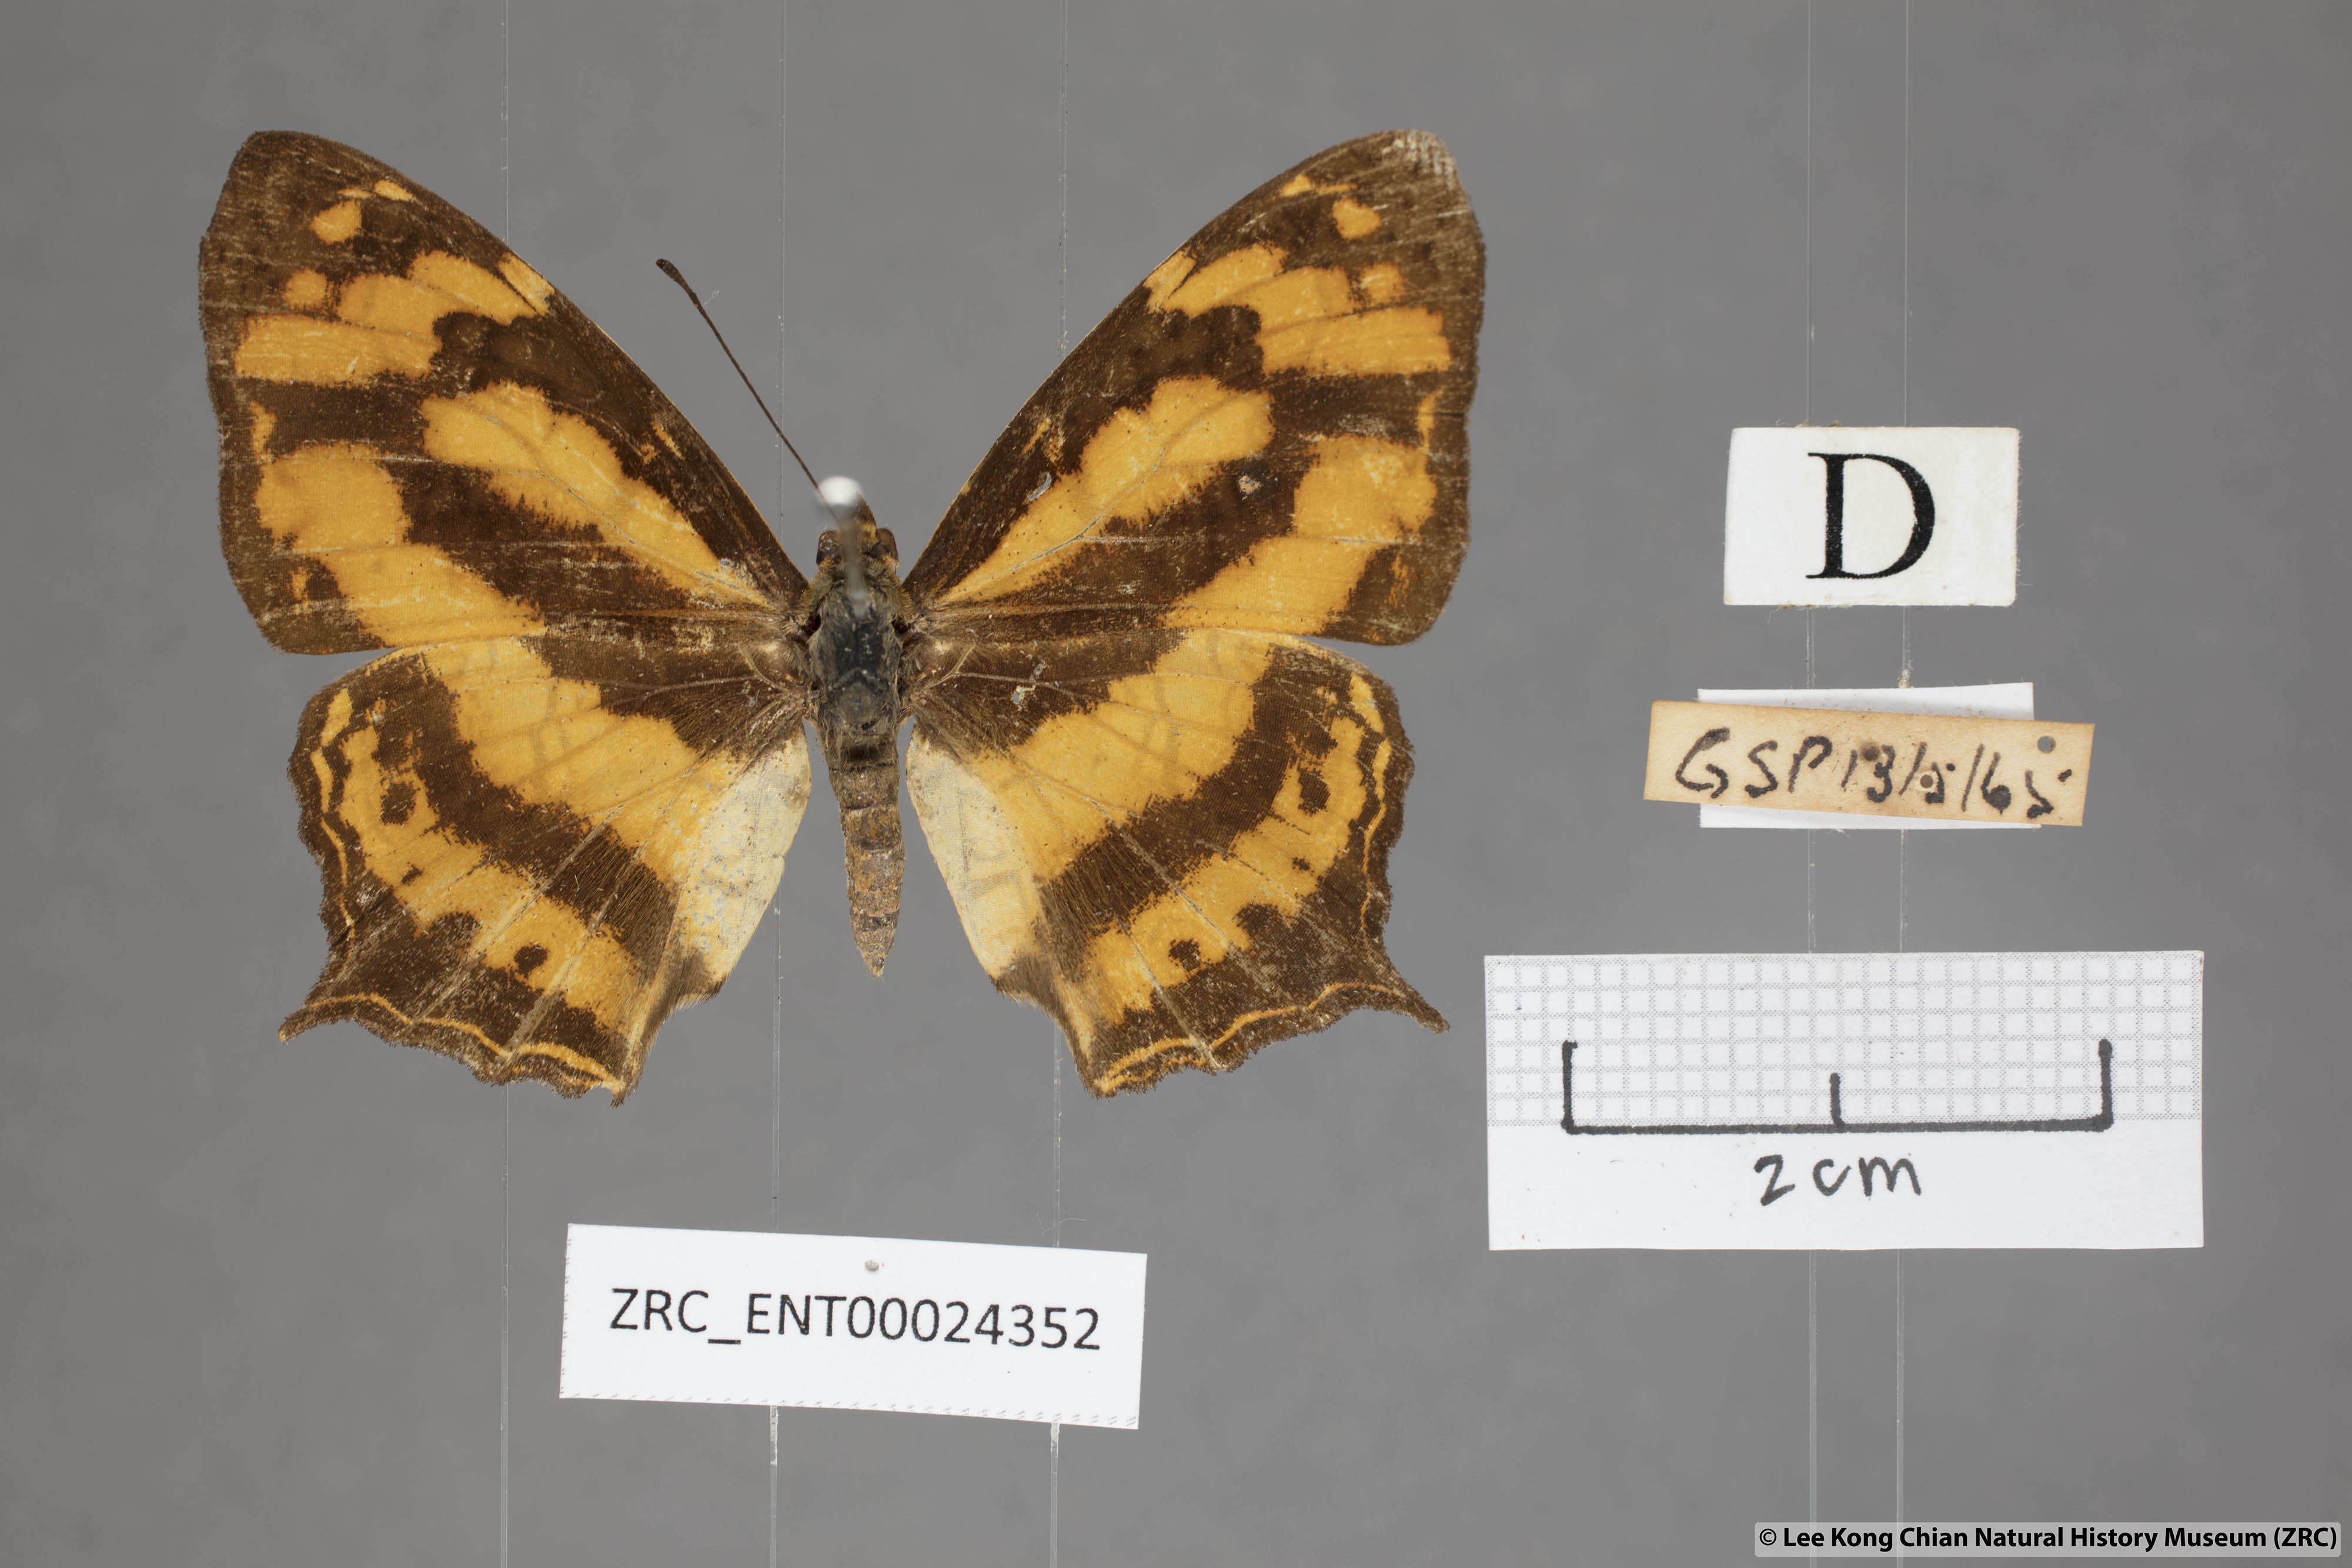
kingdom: Animalia
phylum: Arthropoda
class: Insecta
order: Lepidoptera
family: Nymphalidae
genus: Symbrenthia
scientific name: Symbrenthia hypatia
